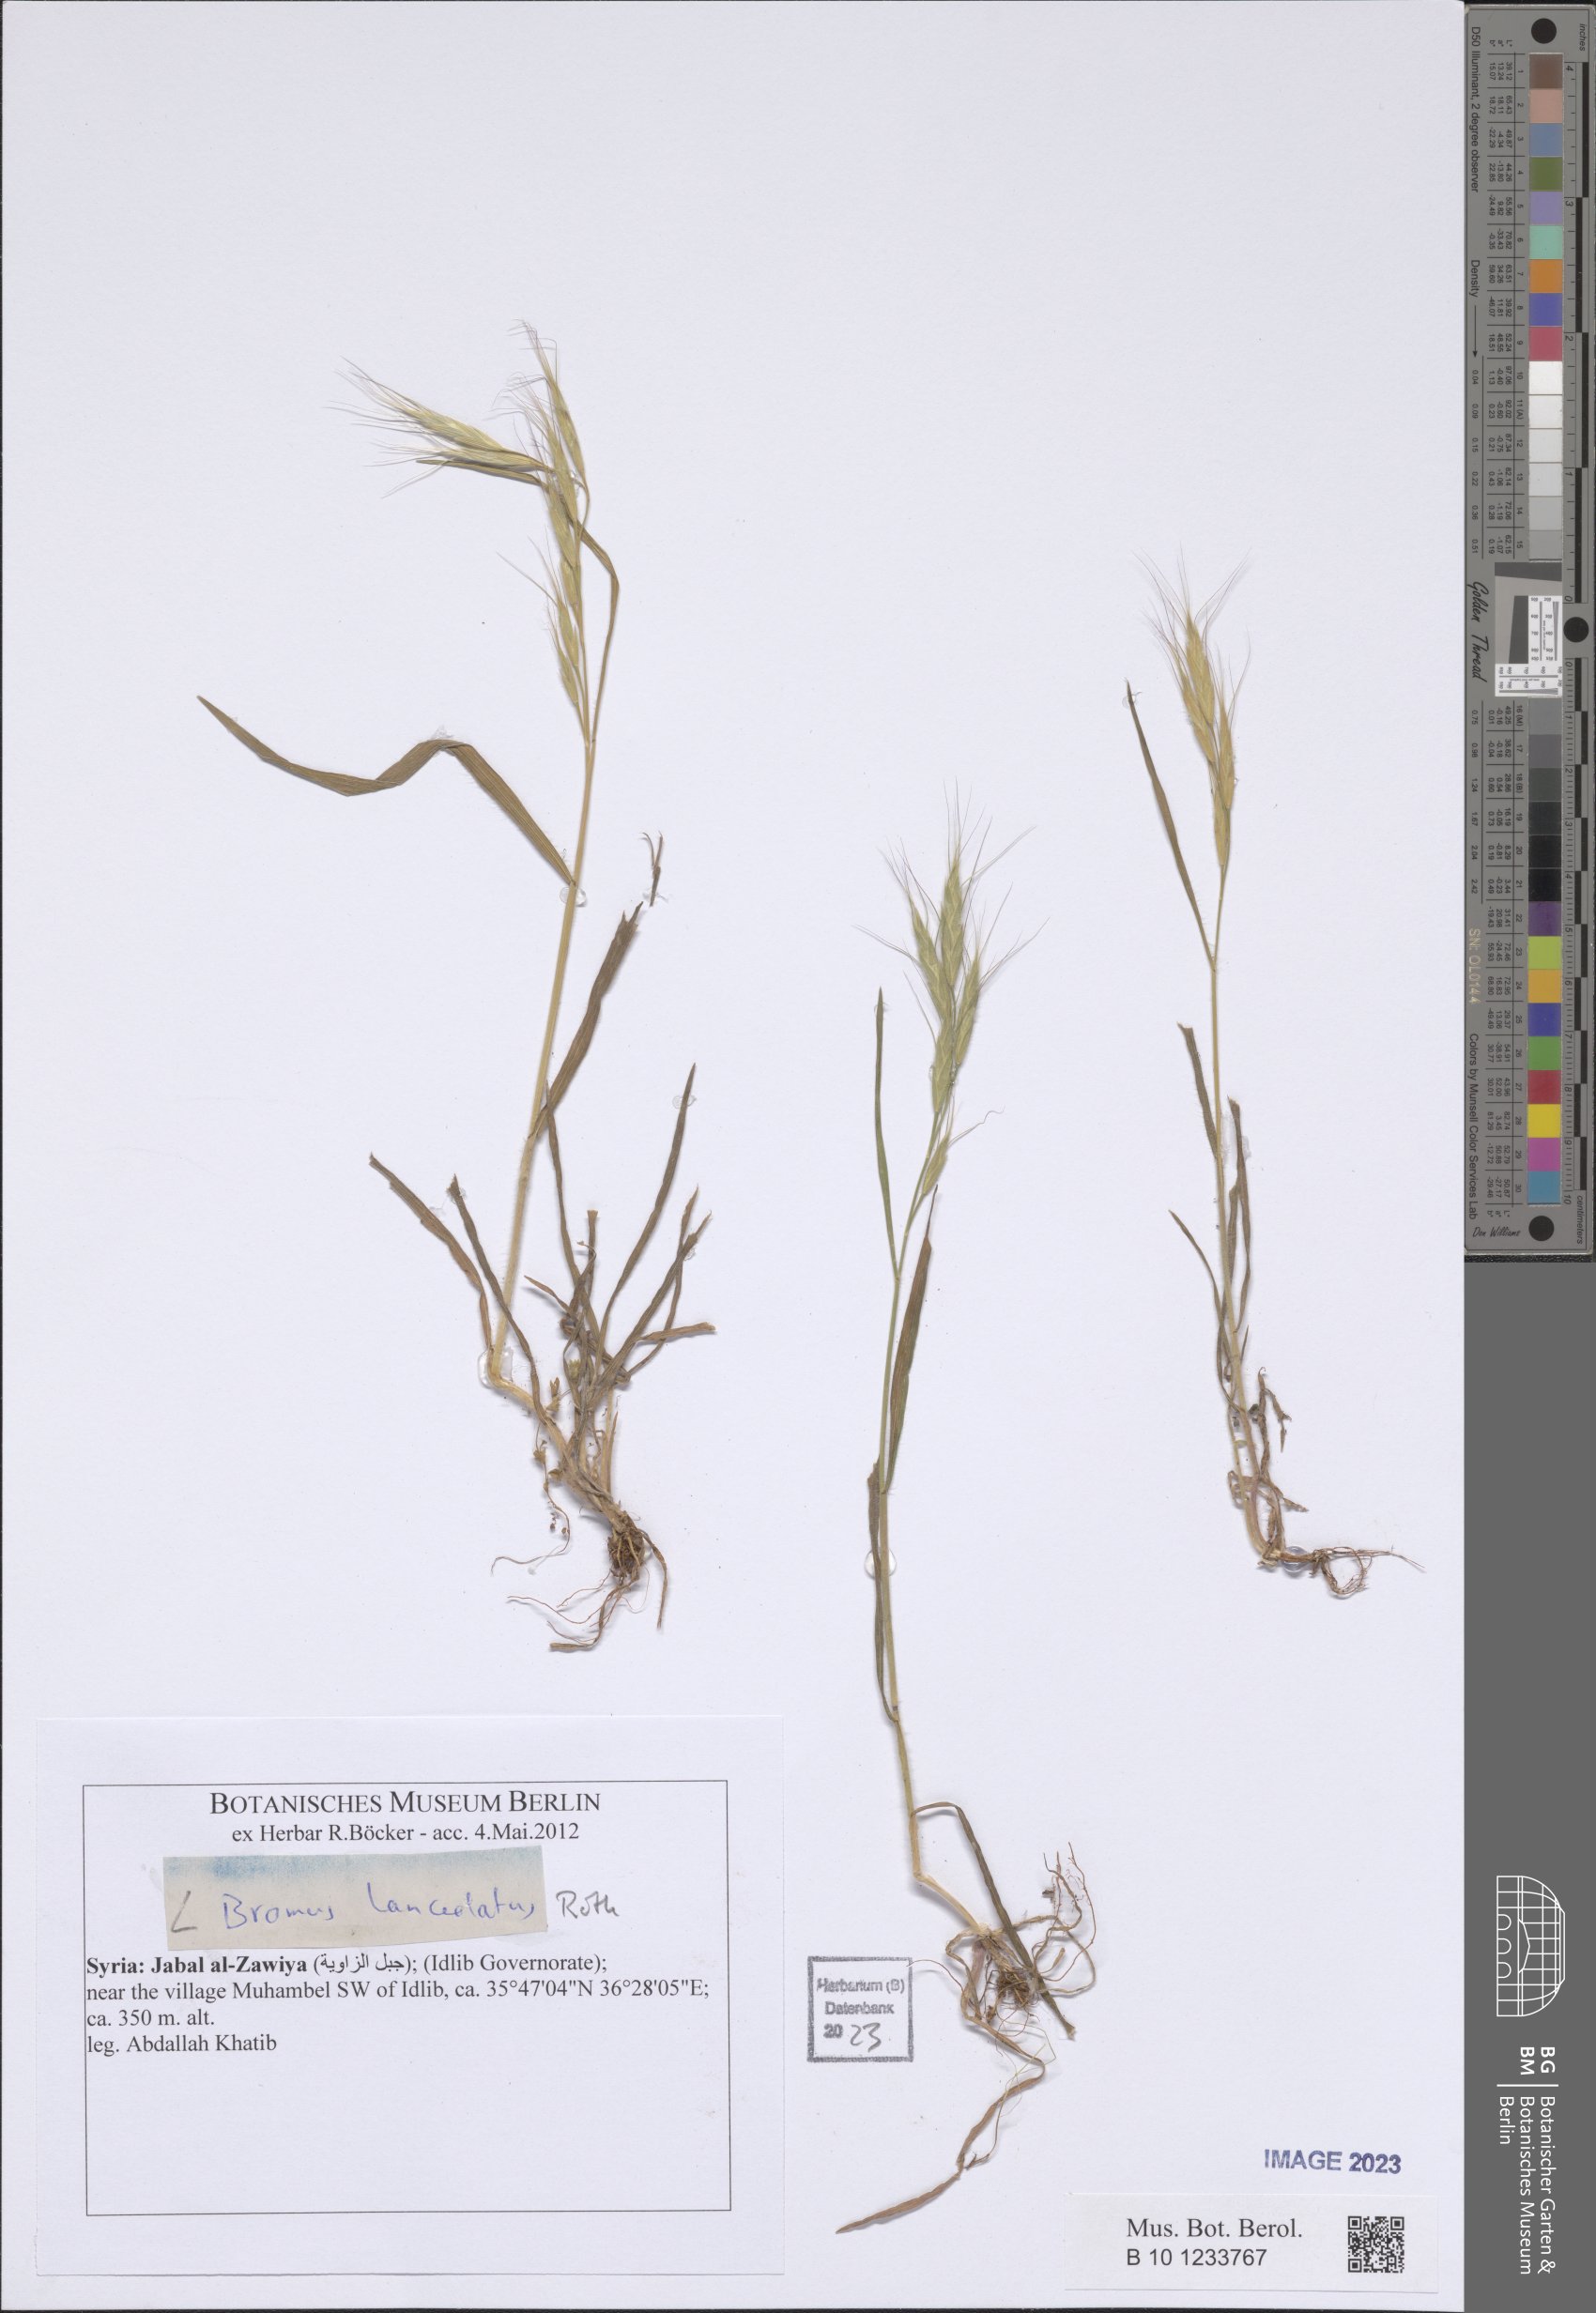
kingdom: Plantae
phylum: Tracheophyta
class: Liliopsida
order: Poales
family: Poaceae
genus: Bromus
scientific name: Bromus lanceolatus
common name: Mediterranean brome
